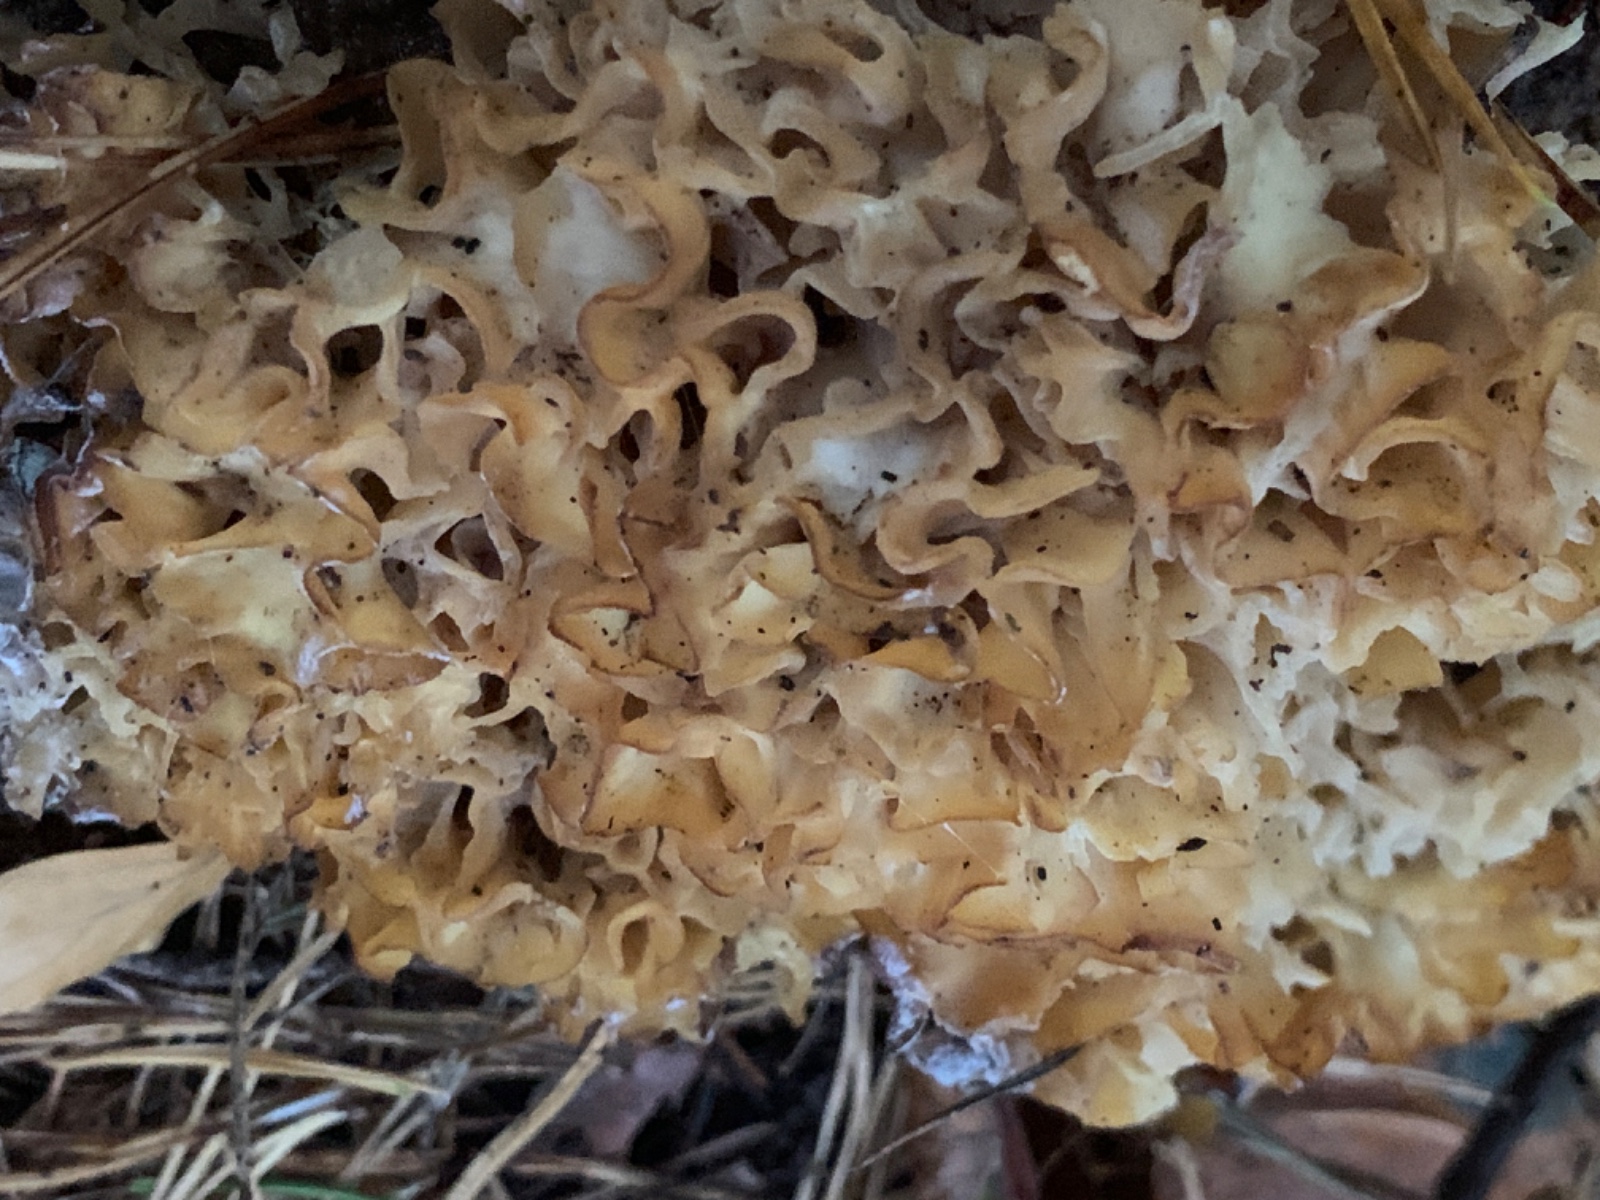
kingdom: Fungi
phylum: Basidiomycota
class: Agaricomycetes
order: Polyporales
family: Sparassidaceae
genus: Sparassis
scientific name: Sparassis crispa
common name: kruset blomkålssvamp
